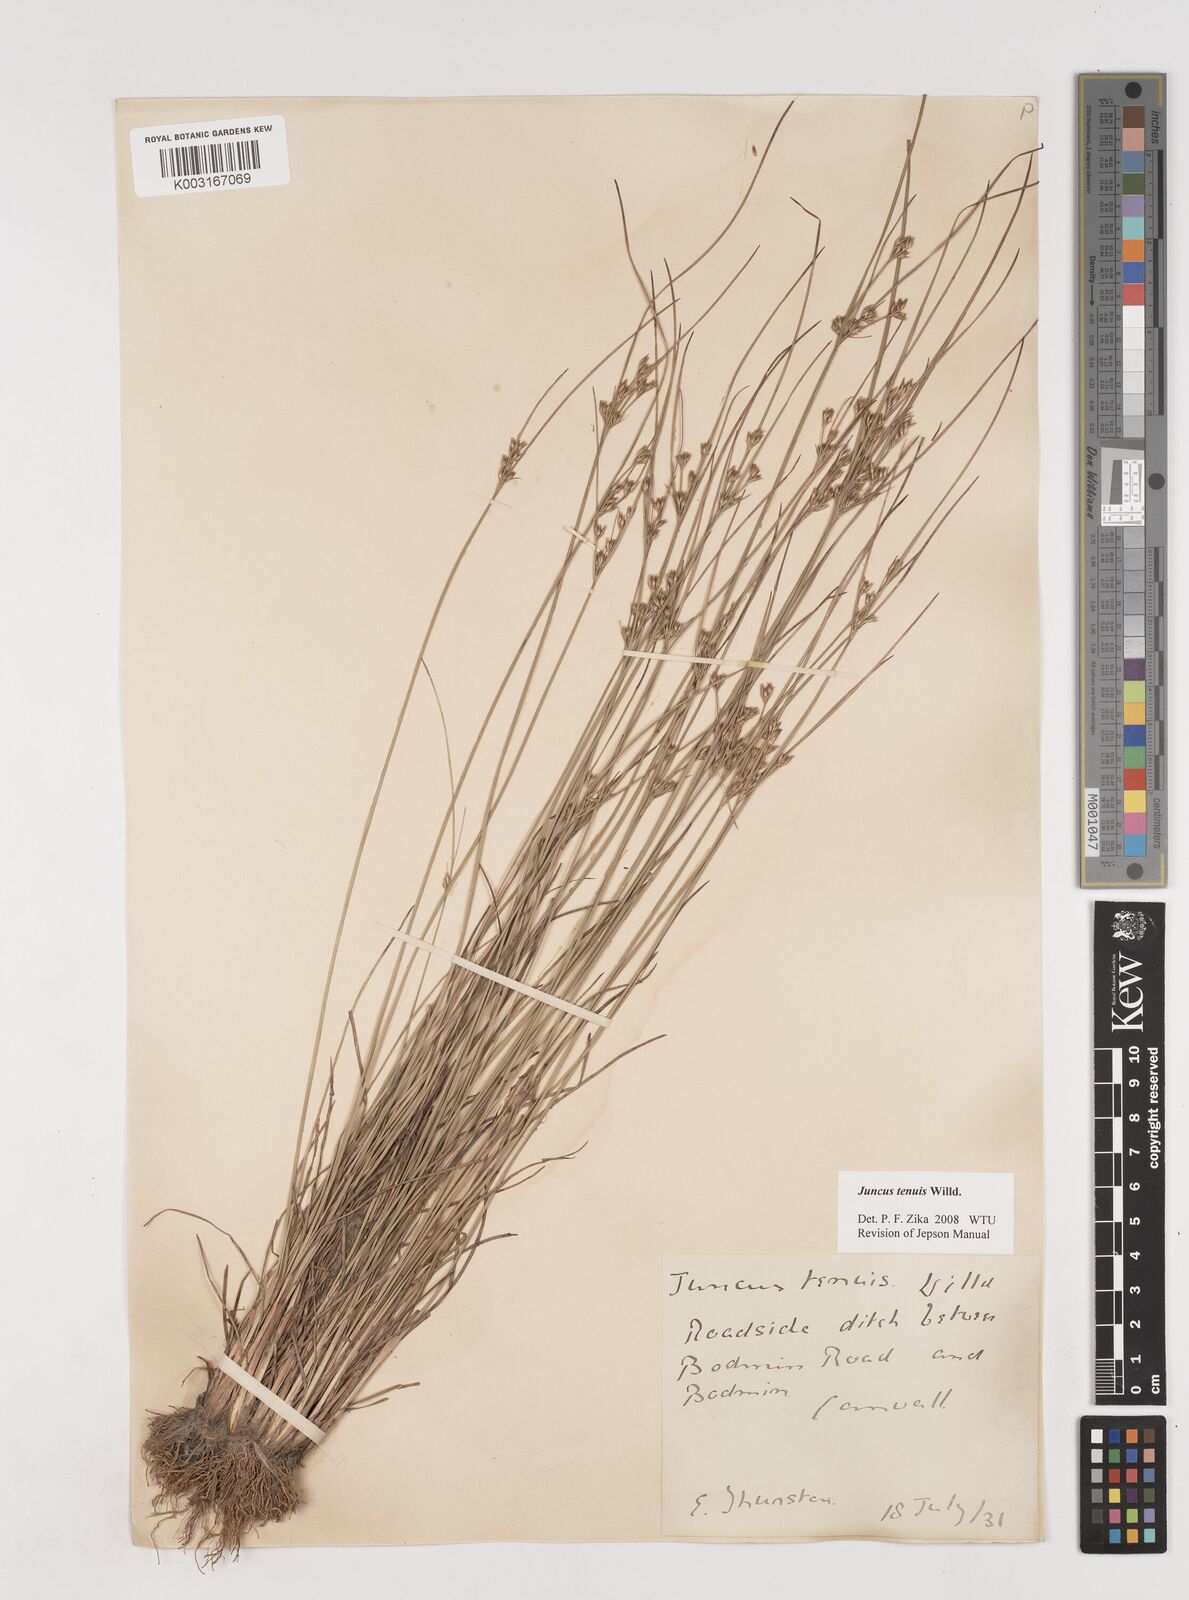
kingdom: Plantae
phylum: Tracheophyta
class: Liliopsida
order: Poales
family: Juncaceae
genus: Juncus
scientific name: Juncus tenuis
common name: Slender rush
